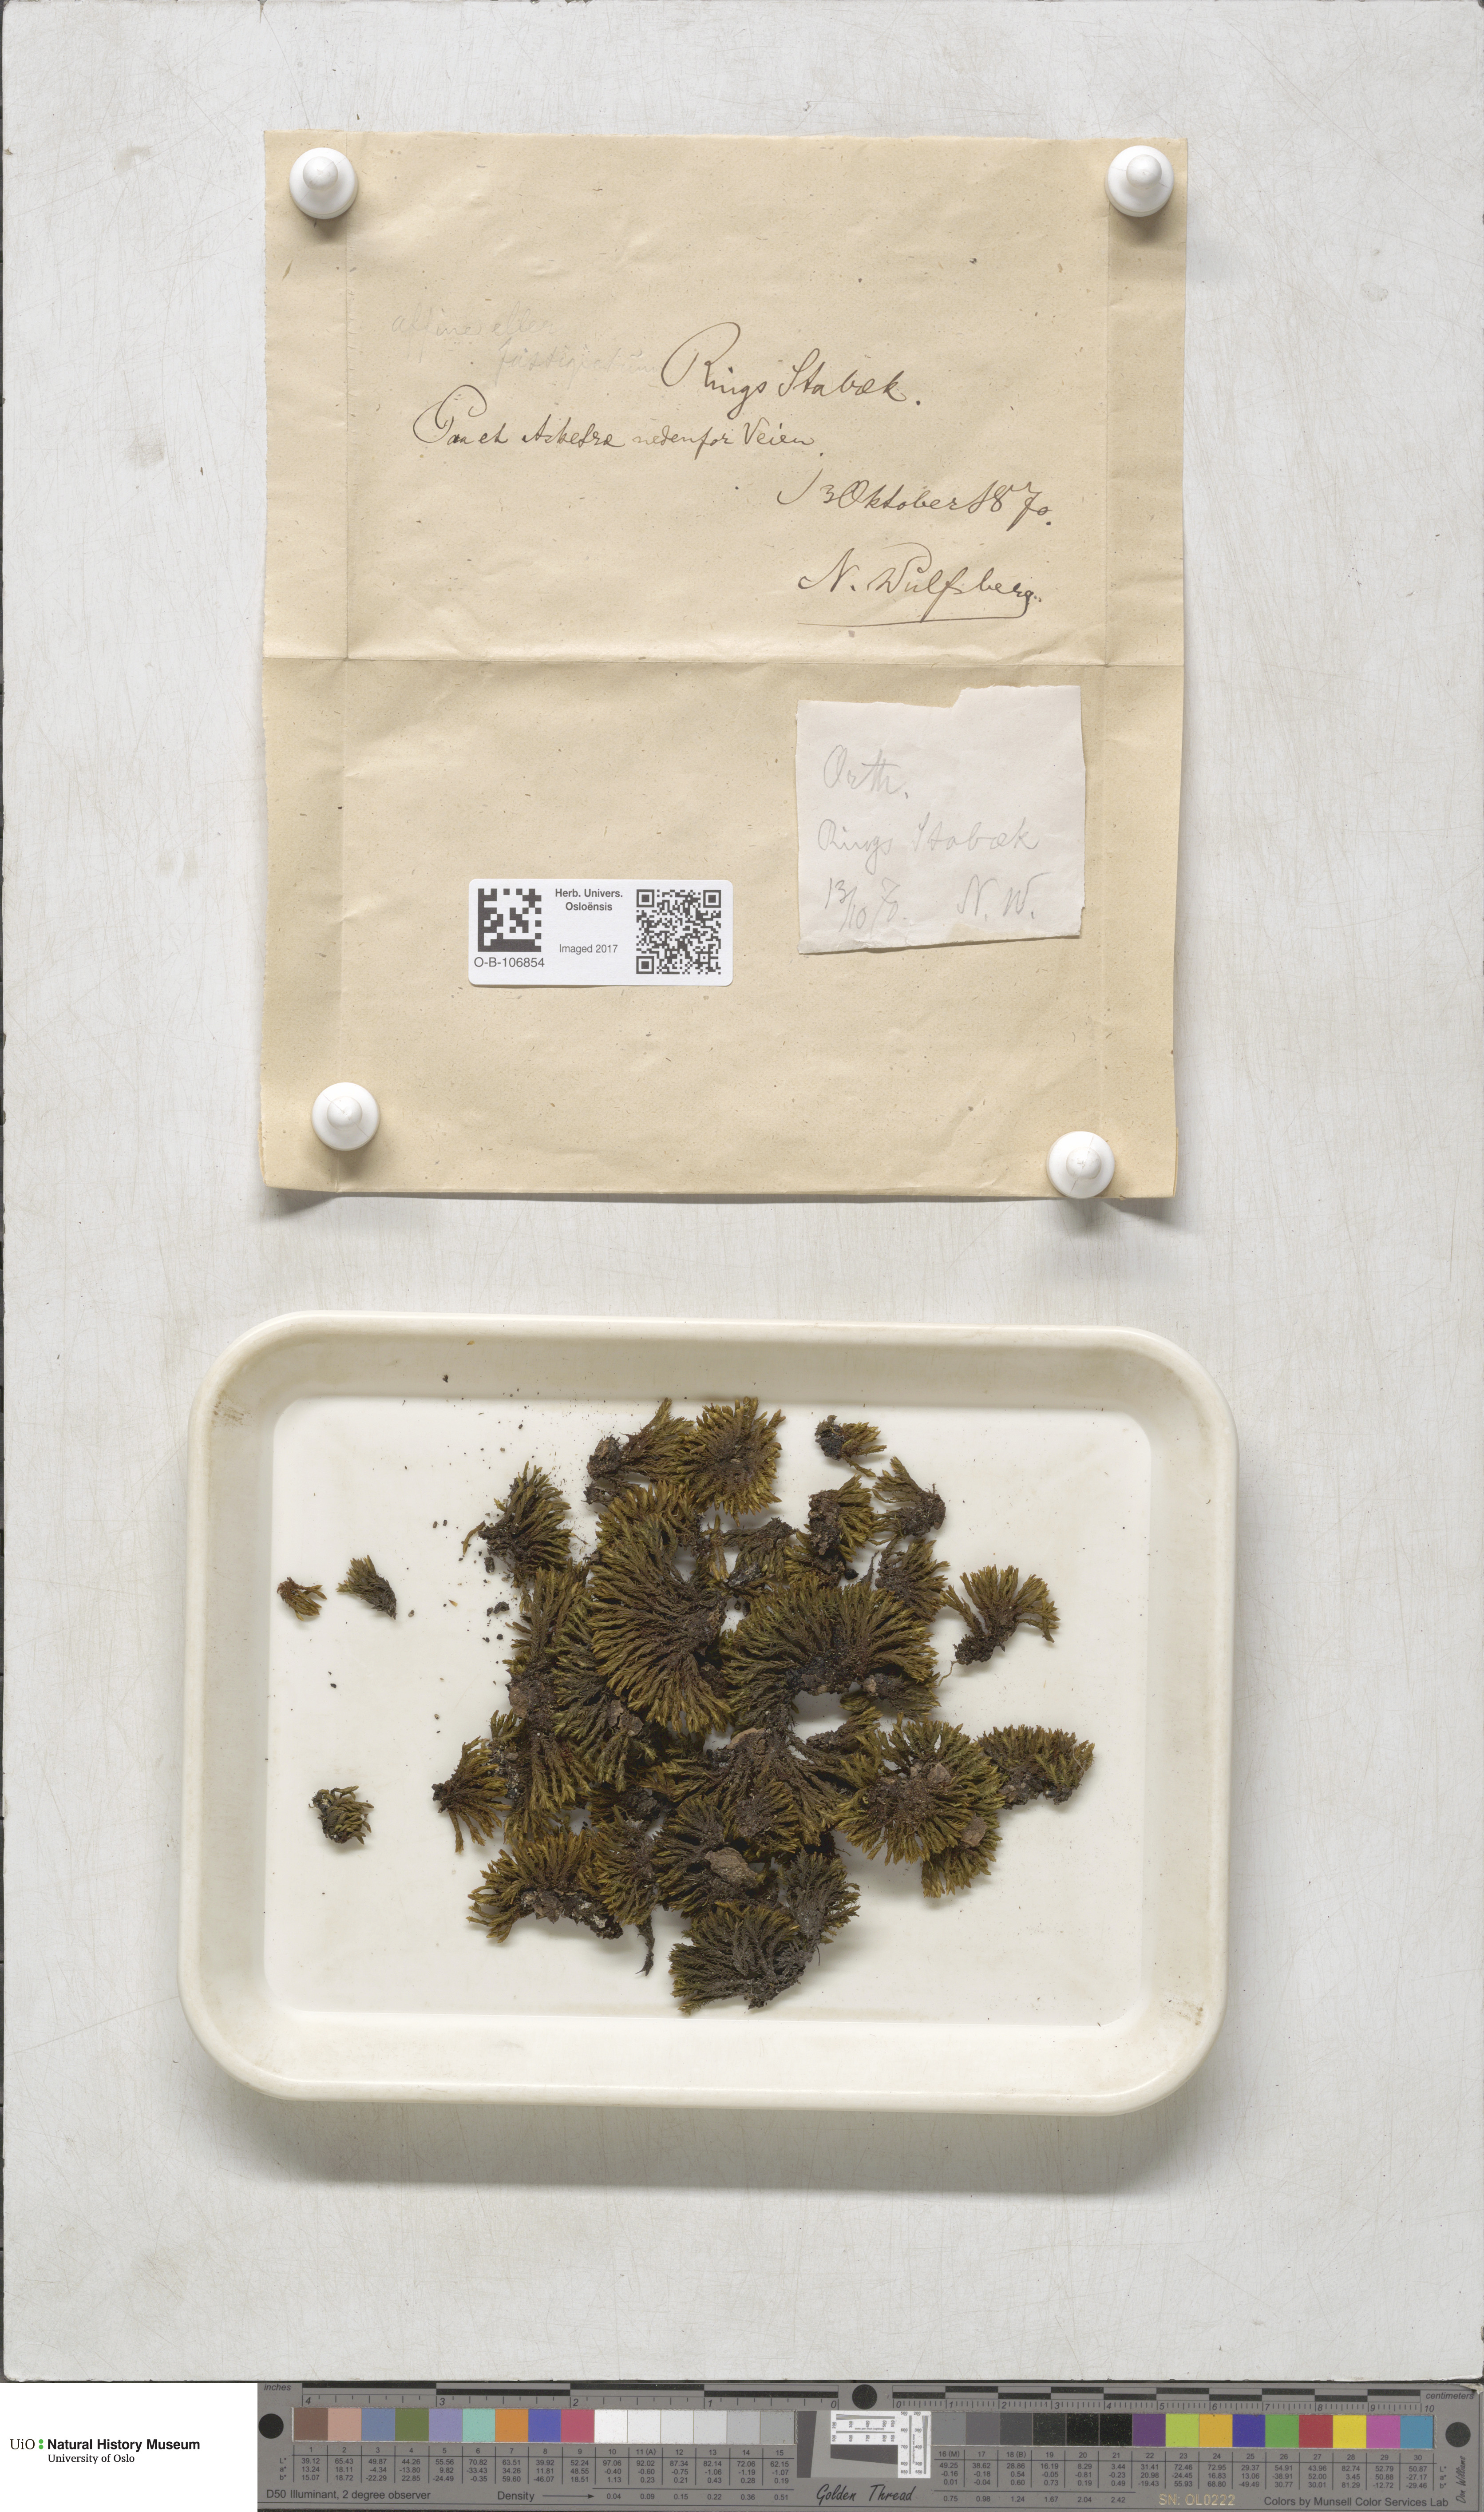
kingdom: Plantae
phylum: Bryophyta
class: Bryopsida
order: Orthotrichales
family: Orthotrichaceae
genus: Lewinskya
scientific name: Lewinskya affinis
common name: Wood bristle-moss
